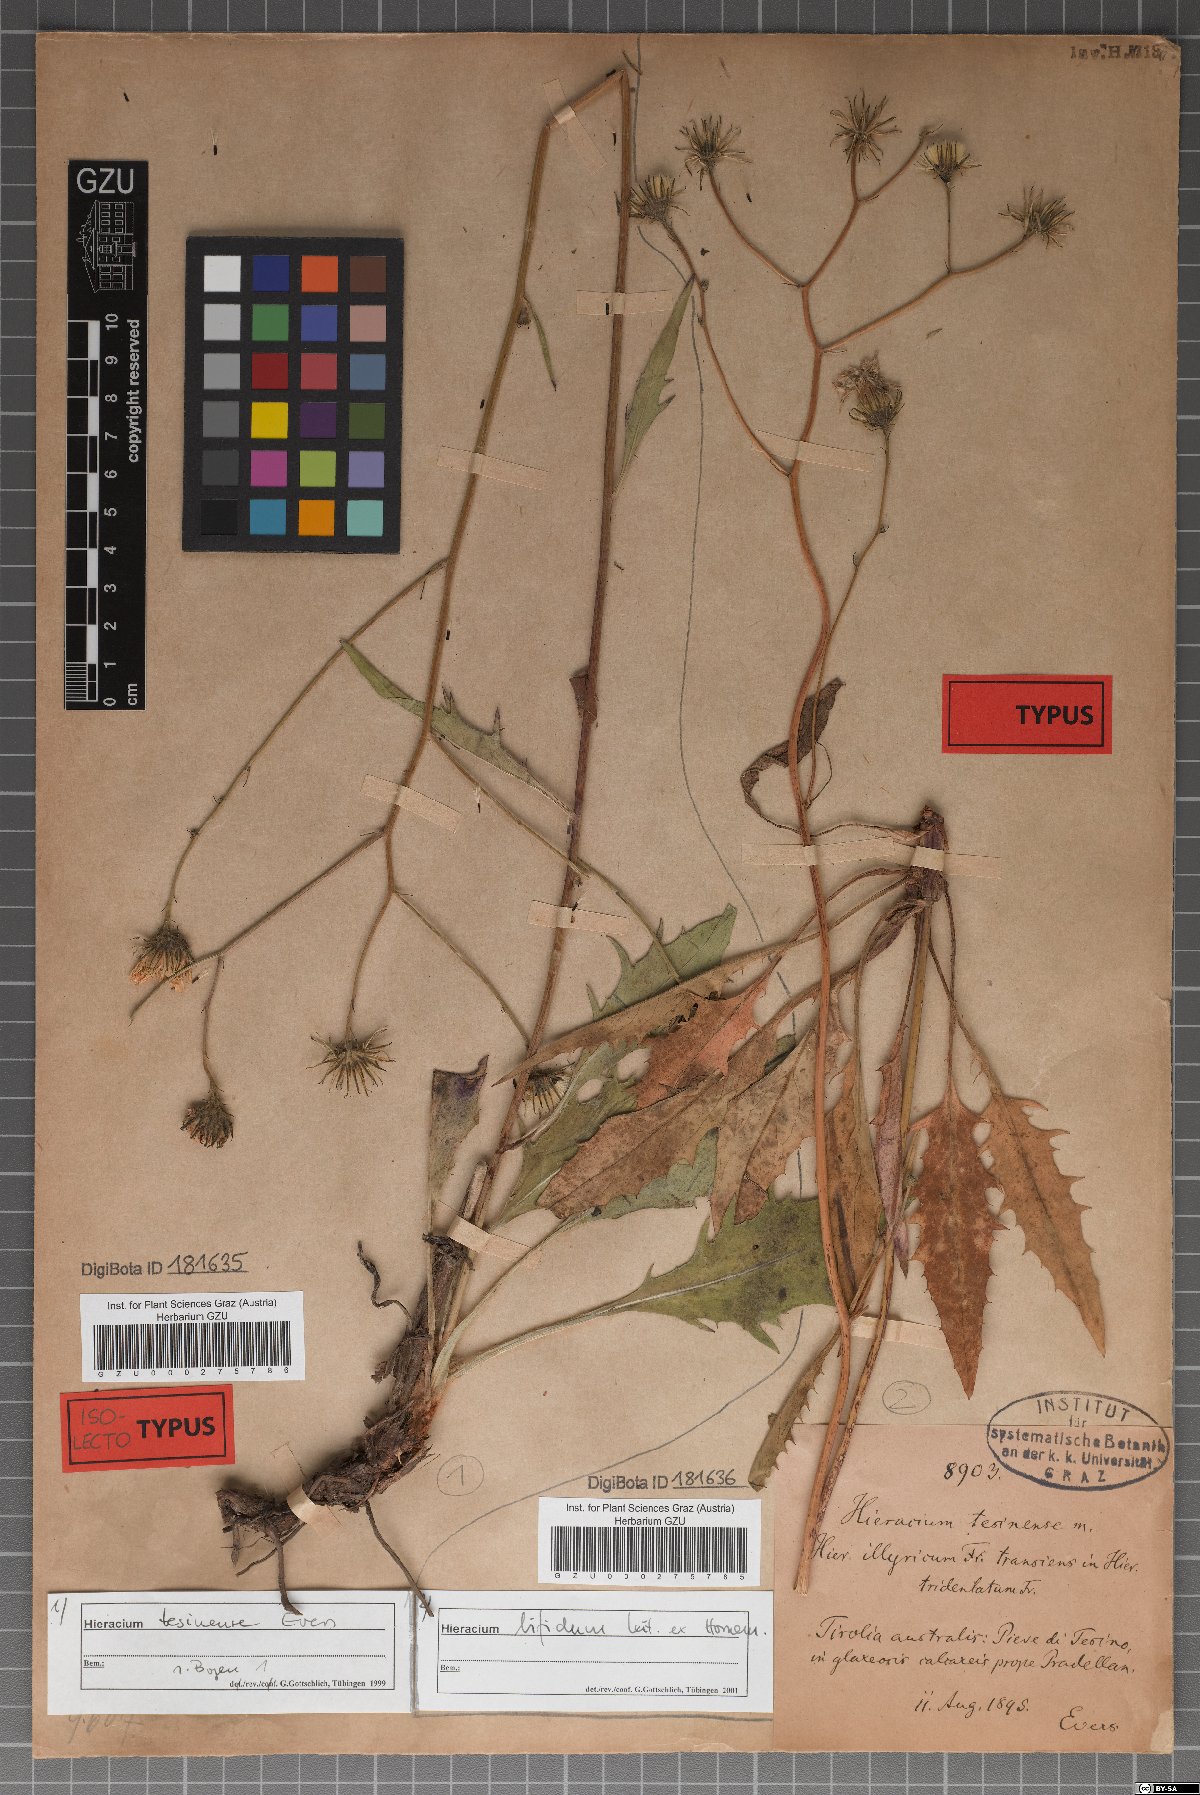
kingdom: Plantae
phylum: Tracheophyta
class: Magnoliopsida
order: Asterales
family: Asteraceae
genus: Hieracium
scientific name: Hieracium calcareum
